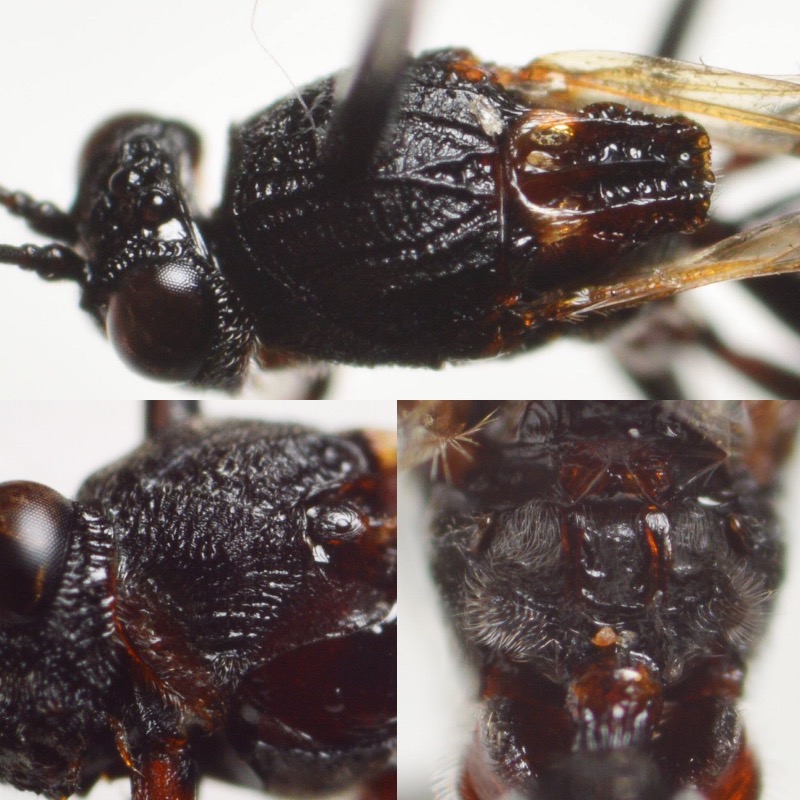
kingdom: Animalia
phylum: Arthropoda
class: Insecta
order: Hymenoptera
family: Figitidae
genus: Callaspidia
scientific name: Callaspidia defonscolombei
